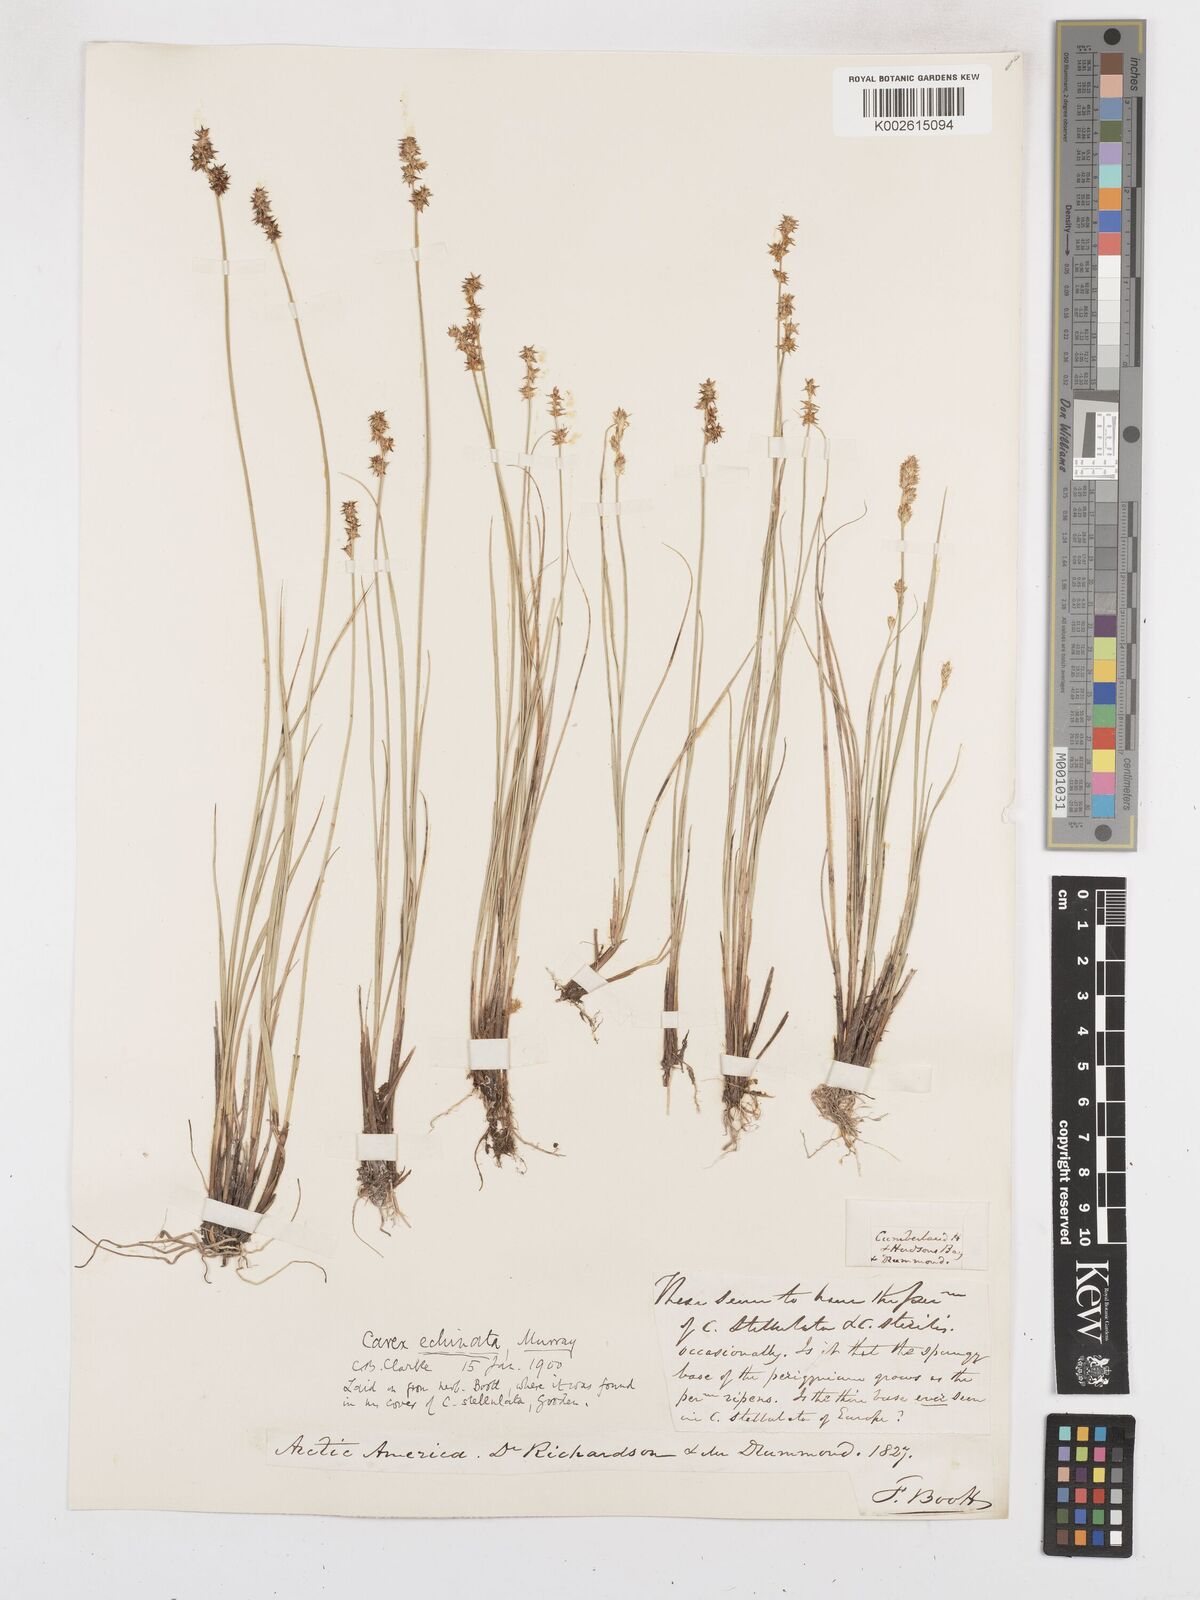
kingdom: Plantae
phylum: Tracheophyta
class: Liliopsida
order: Poales
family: Cyperaceae
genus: Carex
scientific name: Carex echinata
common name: Star sedge
